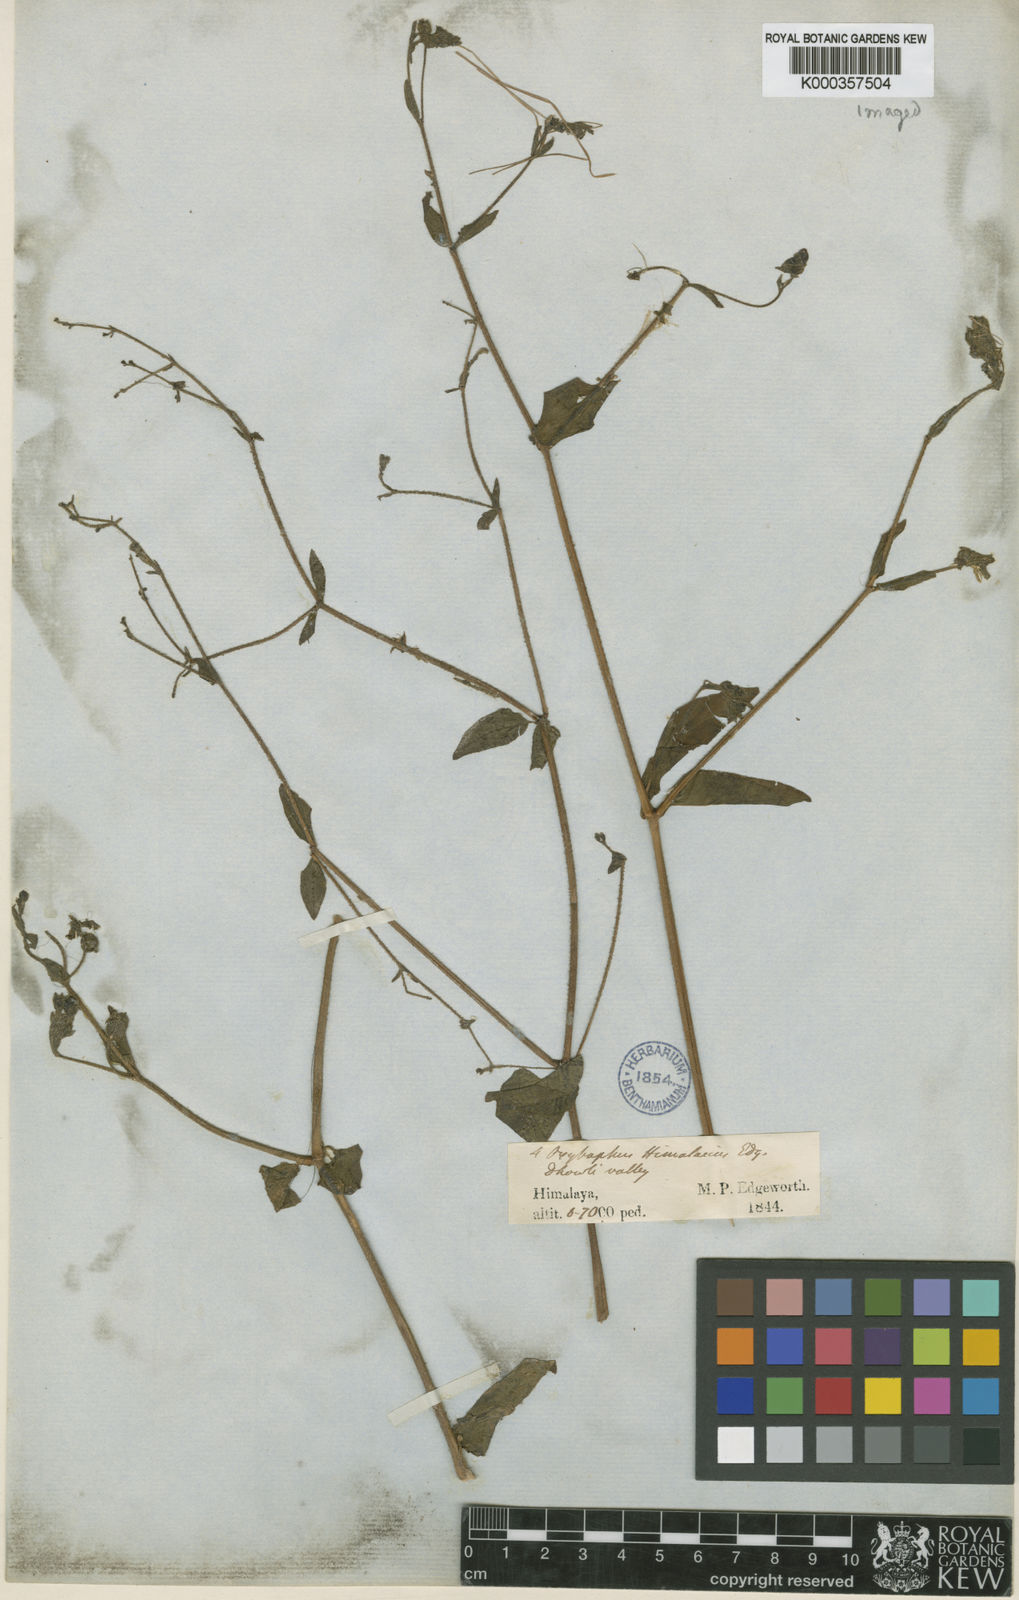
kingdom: Plantae
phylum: Tracheophyta
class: Magnoliopsida
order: Caryophyllales
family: Nyctaginaceae
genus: Mirabilis
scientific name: Mirabilis himalaica
